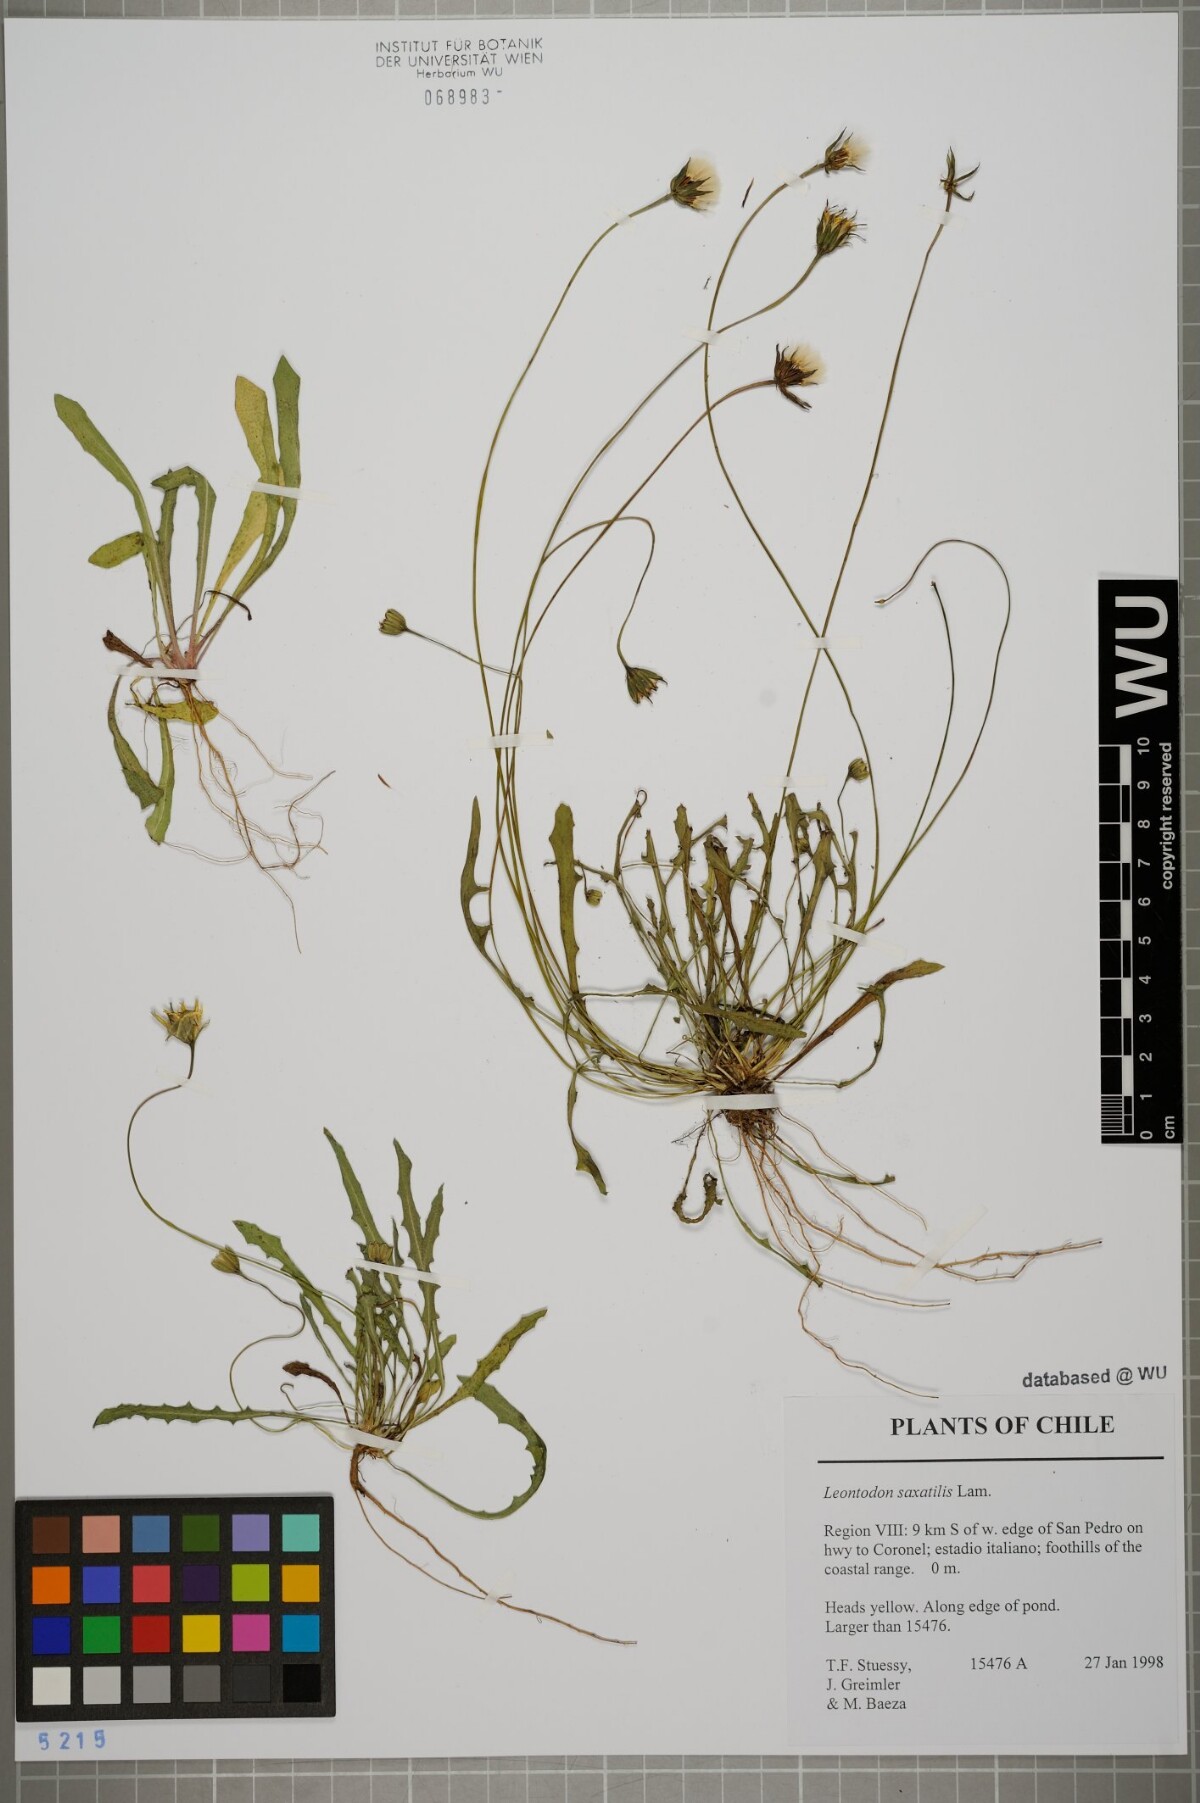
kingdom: Plantae
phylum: Tracheophyta
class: Magnoliopsida
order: Asterales
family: Asteraceae
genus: Thrincia
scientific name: Thrincia saxatilis
